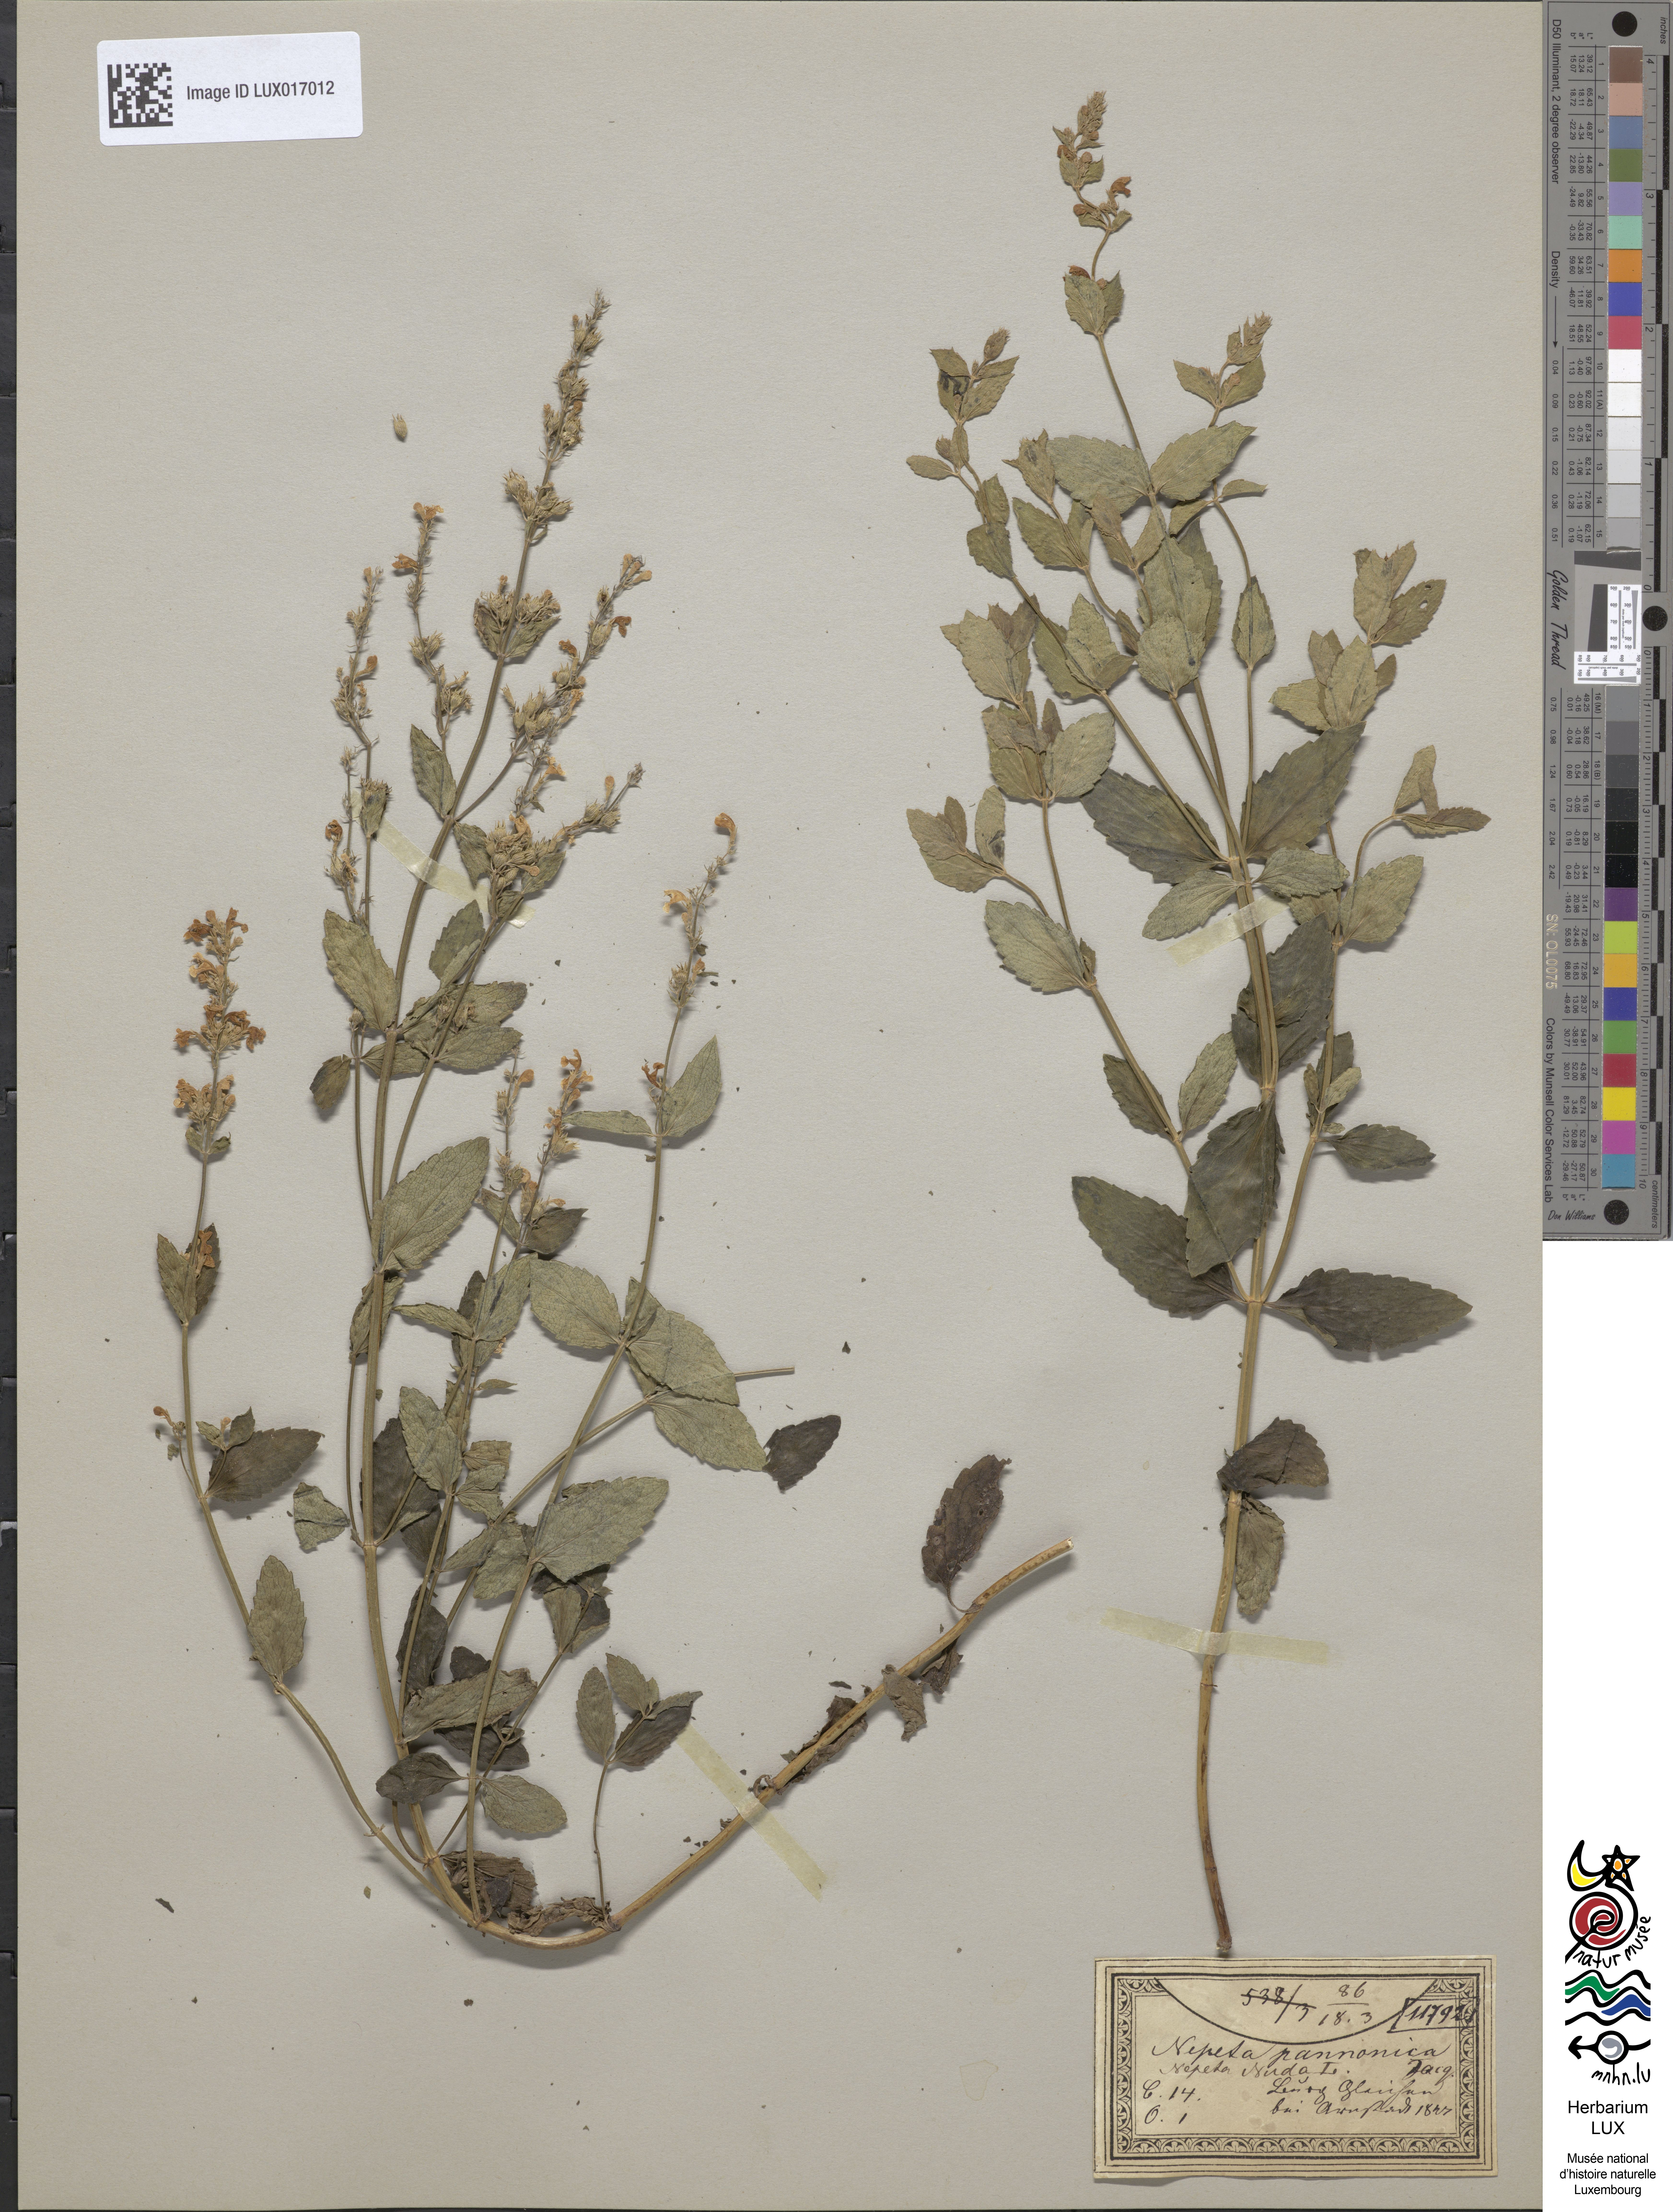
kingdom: Plantae
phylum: Tracheophyta
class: Magnoliopsida
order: Lamiales
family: Lamiaceae
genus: Nepeta
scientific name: Nepeta nuda
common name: Hairless catmint
